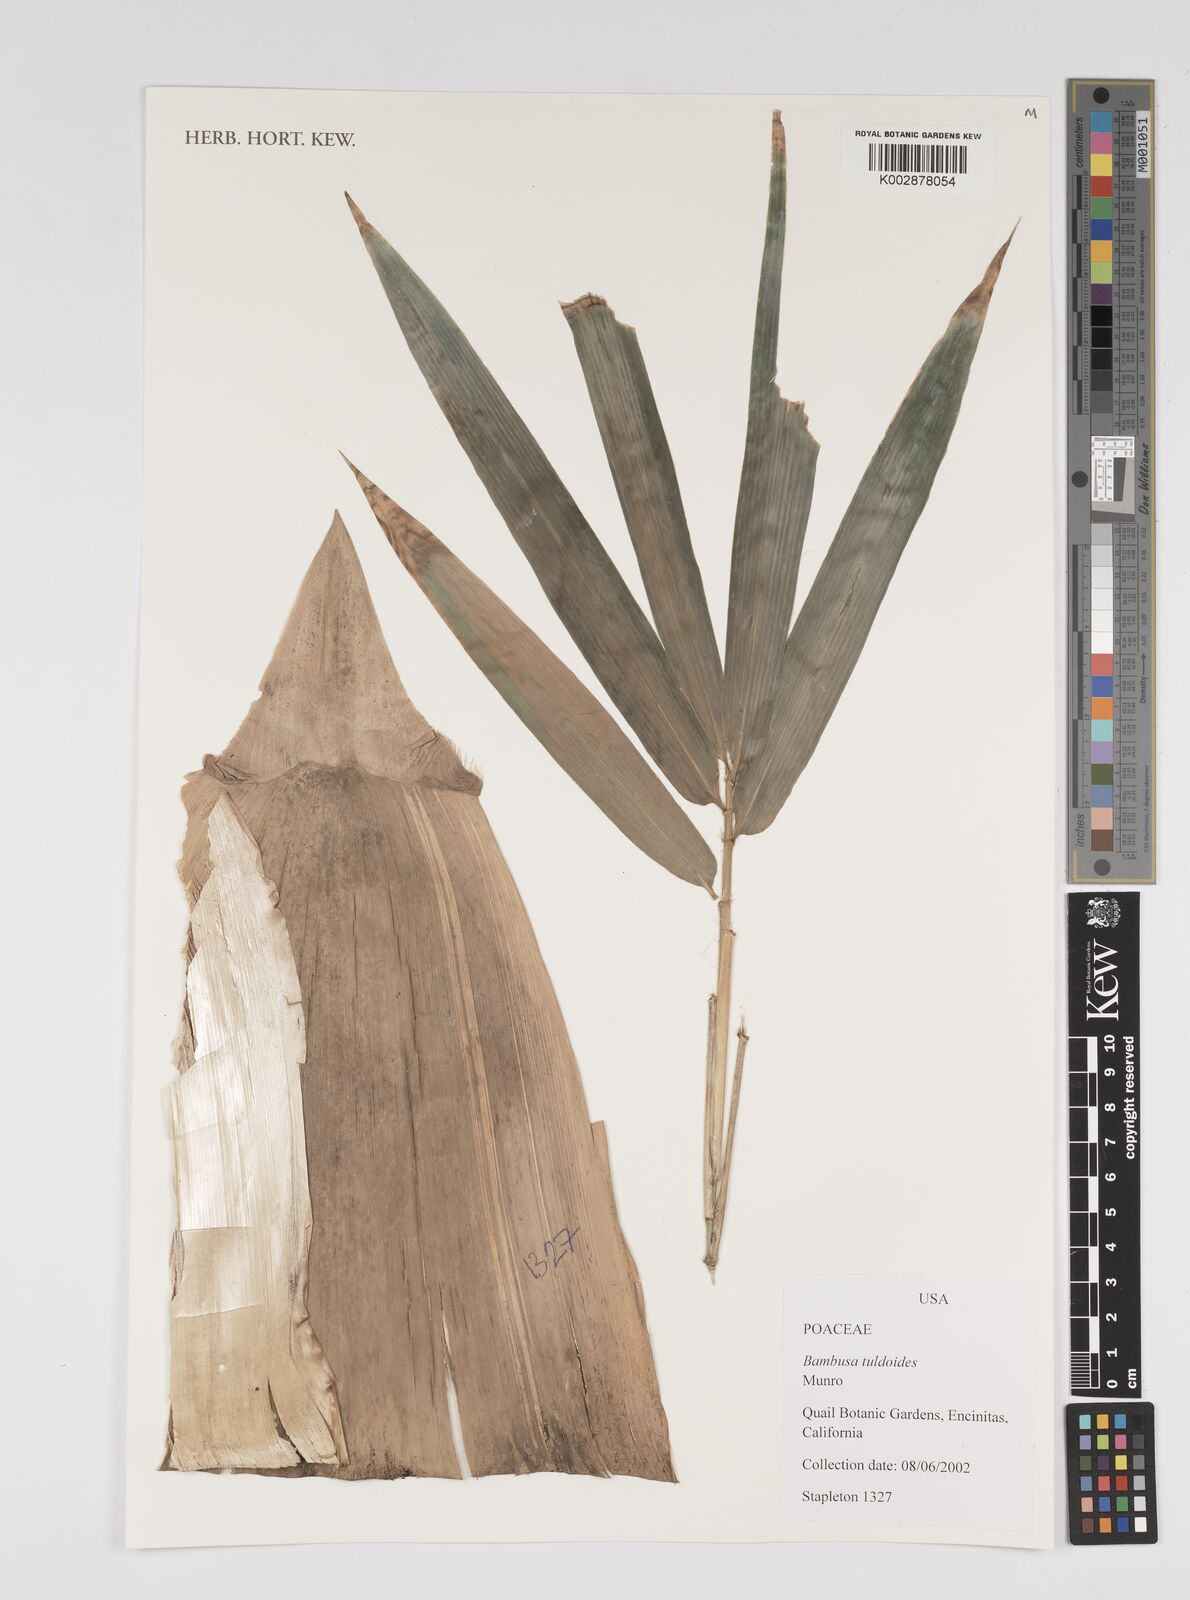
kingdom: Plantae
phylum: Tracheophyta
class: Liliopsida
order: Poales
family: Poaceae
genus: Bambusa
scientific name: Bambusa tuldoides
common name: Verdant bamboo
